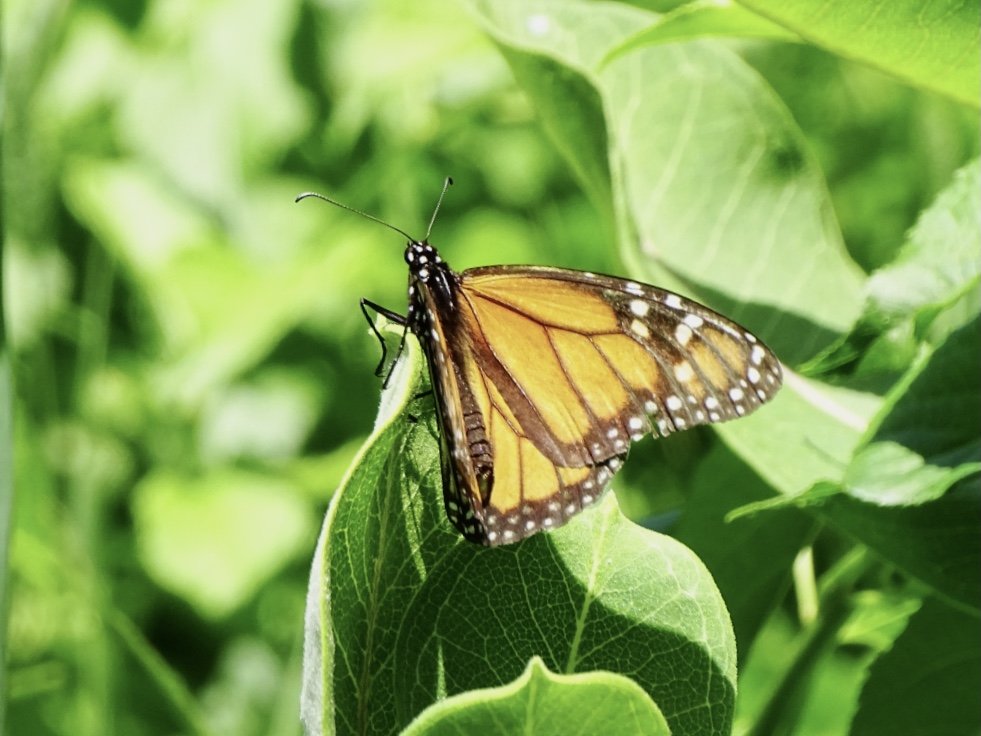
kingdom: Animalia
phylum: Arthropoda
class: Insecta
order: Lepidoptera
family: Nymphalidae
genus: Danaus
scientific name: Danaus plexippus
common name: Monarch
